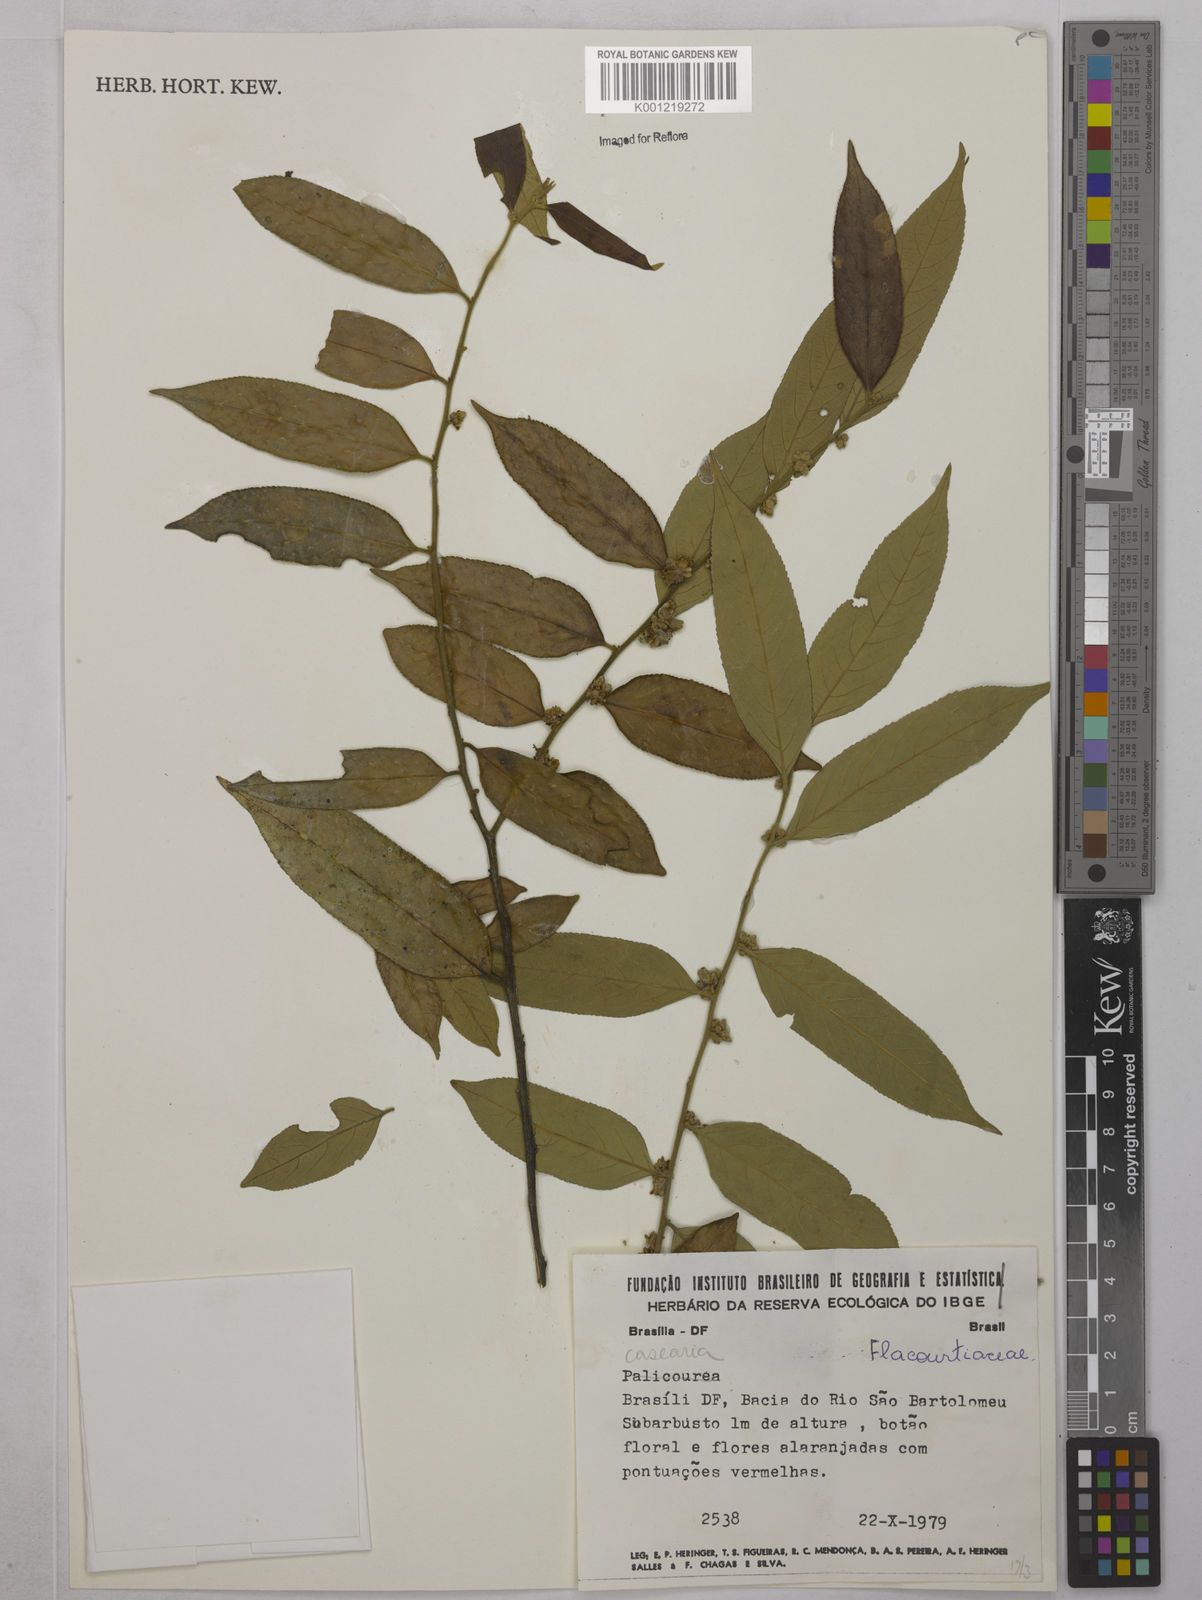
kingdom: Plantae
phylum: Tracheophyta
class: Magnoliopsida
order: Malpighiales
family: Salicaceae
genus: Casearia
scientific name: Casearia
